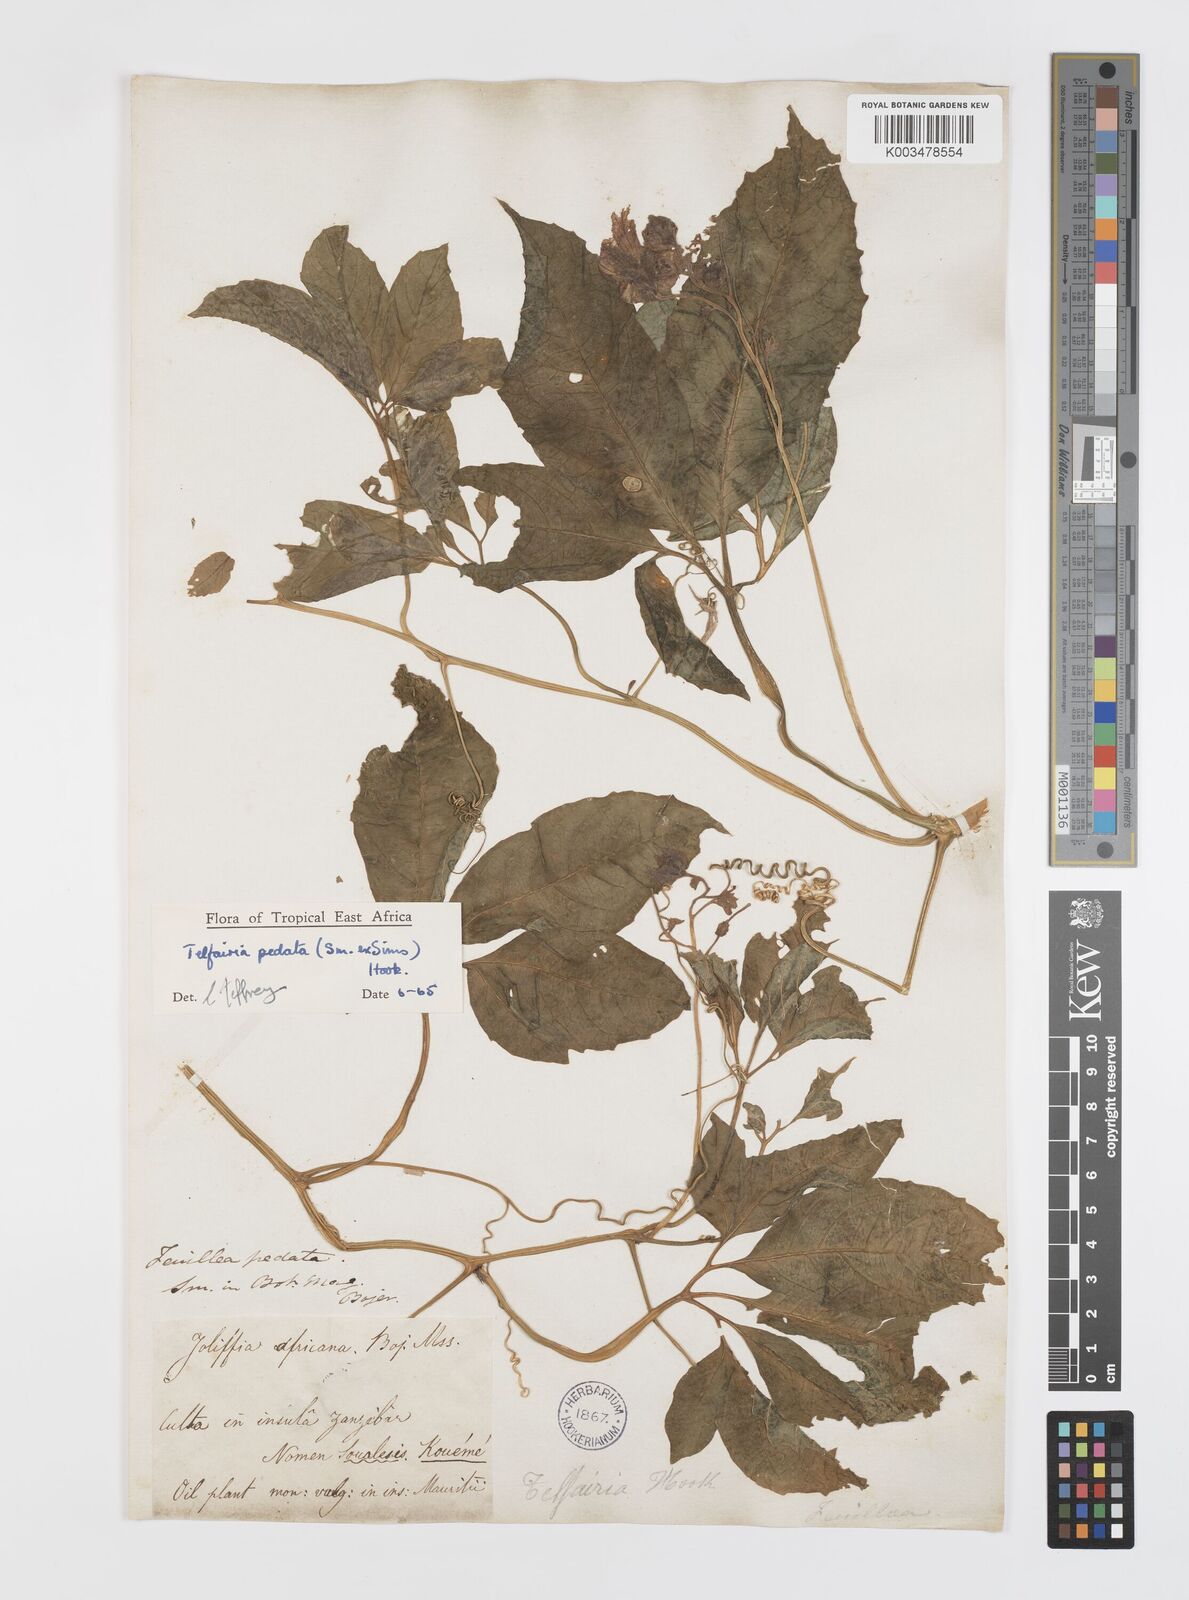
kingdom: Plantae
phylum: Tracheophyta
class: Magnoliopsida
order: Cucurbitales
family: Cucurbitaceae
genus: Telfairia
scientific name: Telfairia pedata
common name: Zanzibar oilvine
